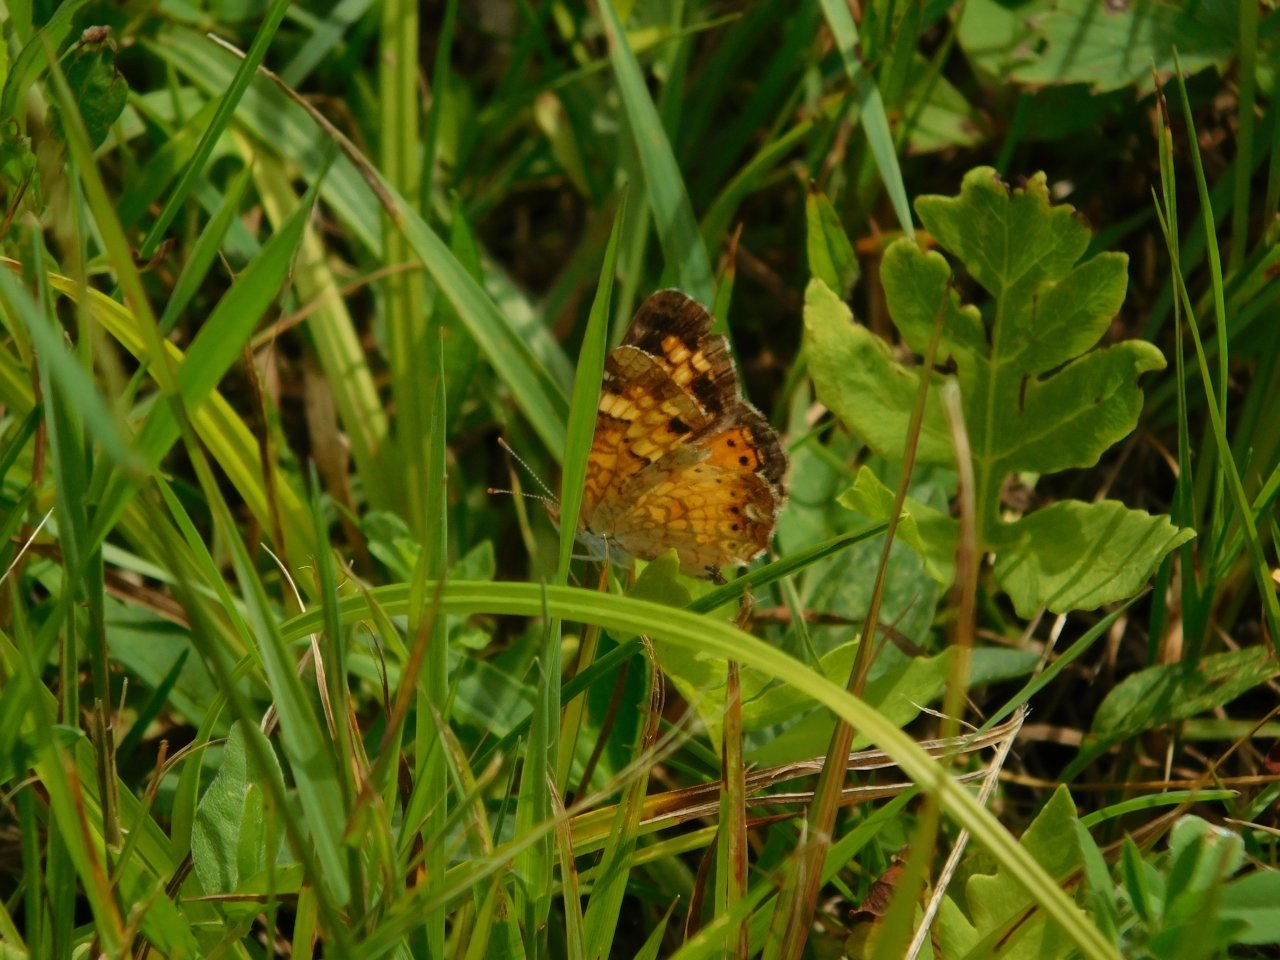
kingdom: Animalia
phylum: Arthropoda
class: Insecta
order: Lepidoptera
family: Nymphalidae
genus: Phyciodes
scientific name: Phyciodes tharos
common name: Northern Crescent
